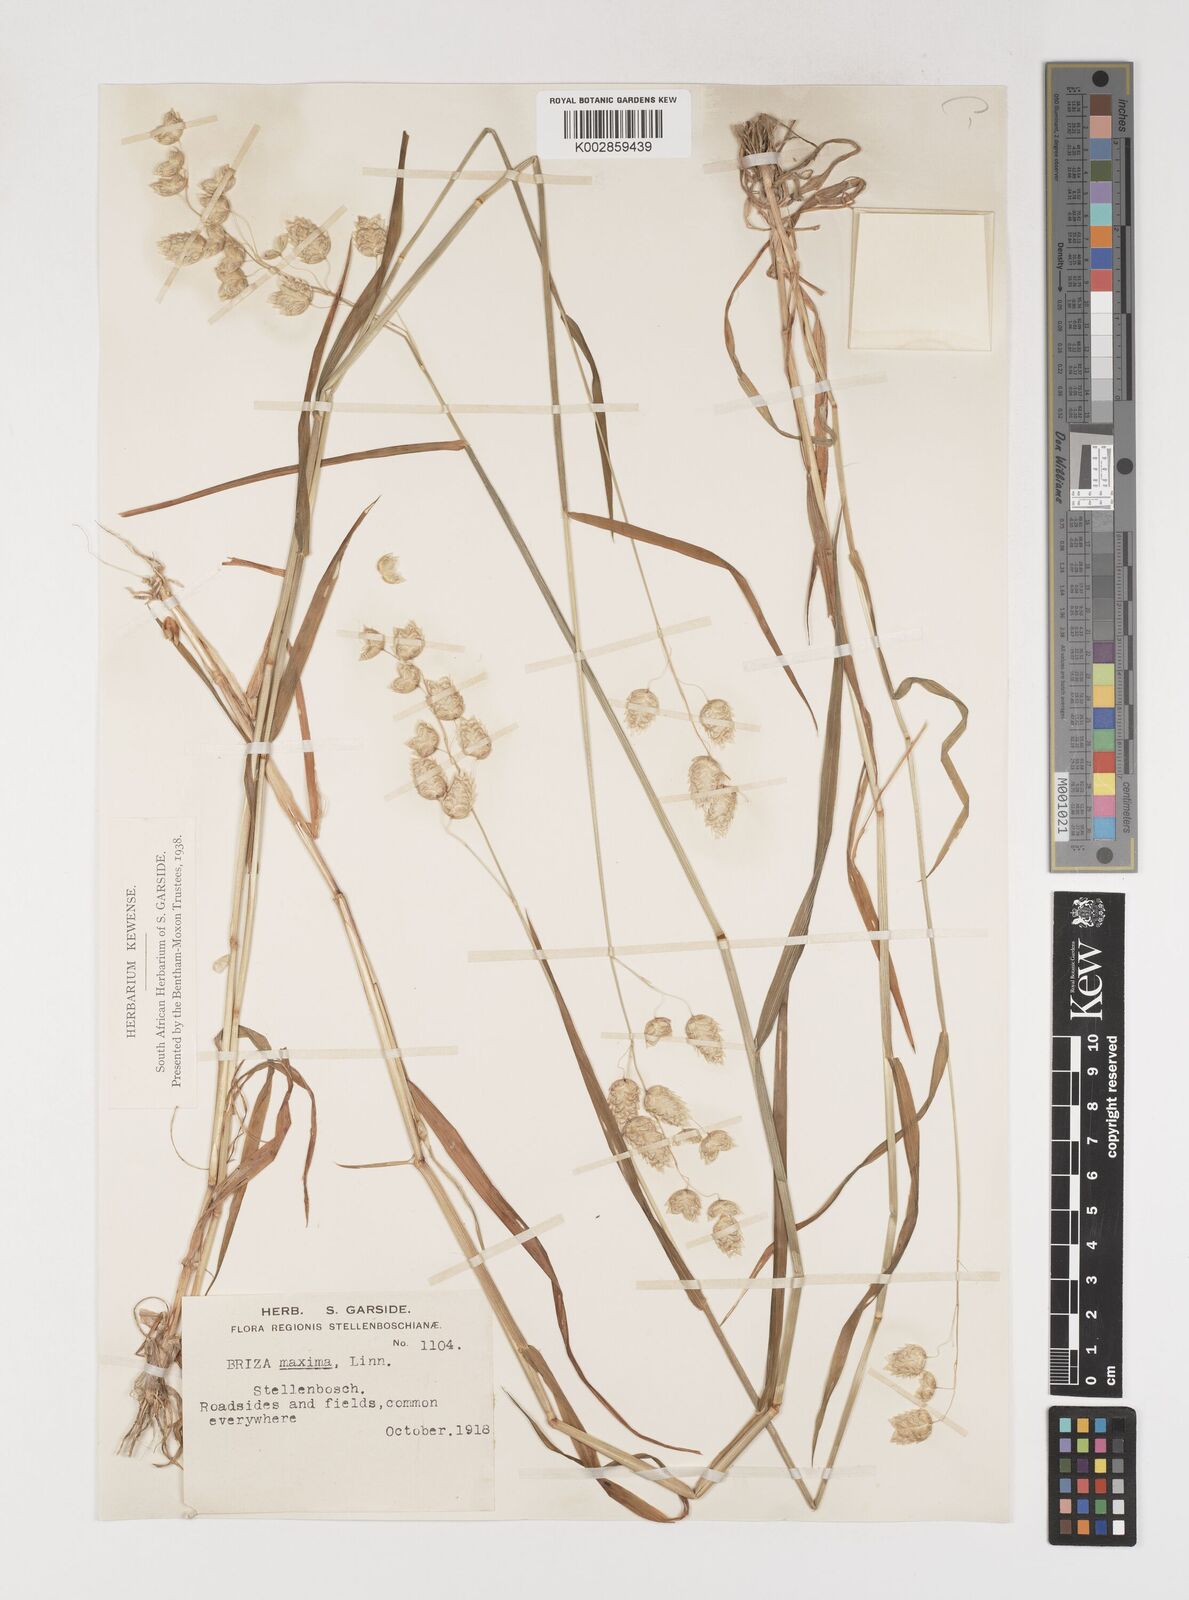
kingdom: Plantae
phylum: Tracheophyta
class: Liliopsida
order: Poales
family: Poaceae
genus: Briza
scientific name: Briza maxima
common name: Big quakinggrass
